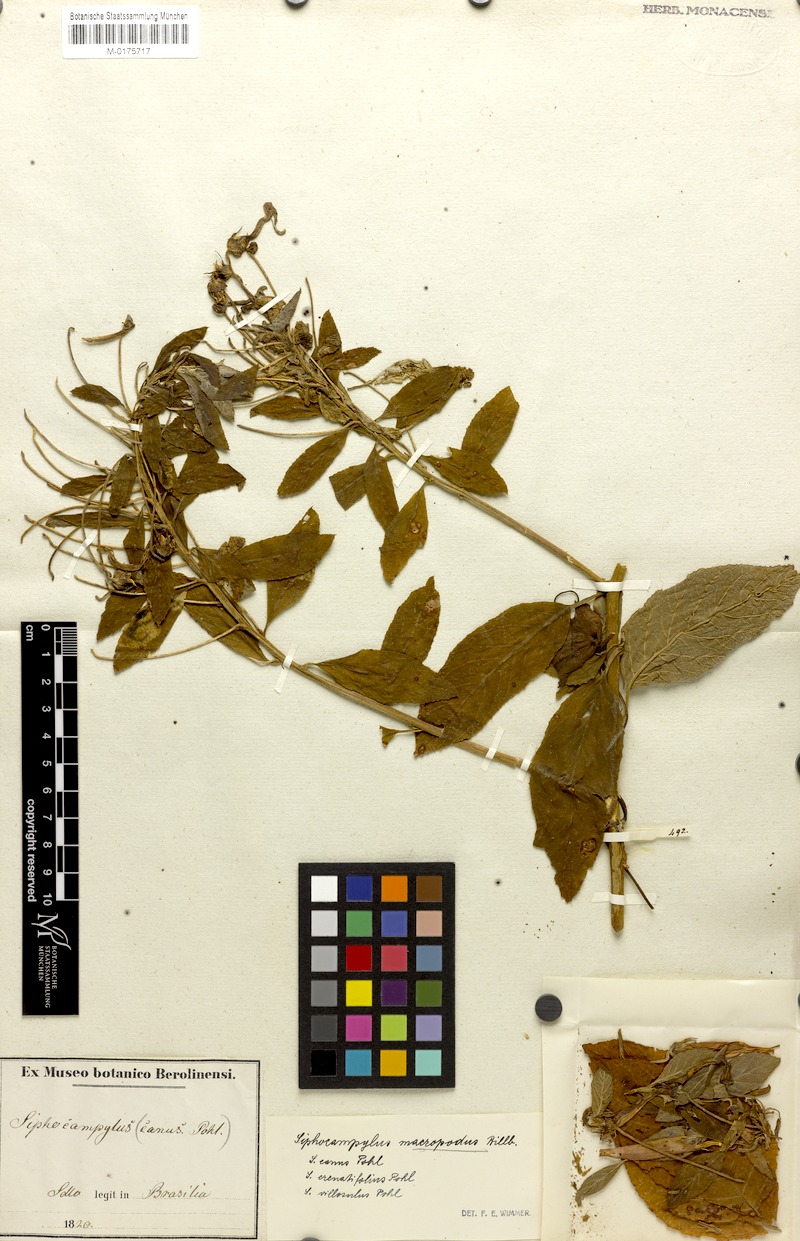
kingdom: Plantae
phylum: Tracheophyta
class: Magnoliopsida
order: Asterales
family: Campanulaceae
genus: Siphocampylus
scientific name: Siphocampylus macropodus
